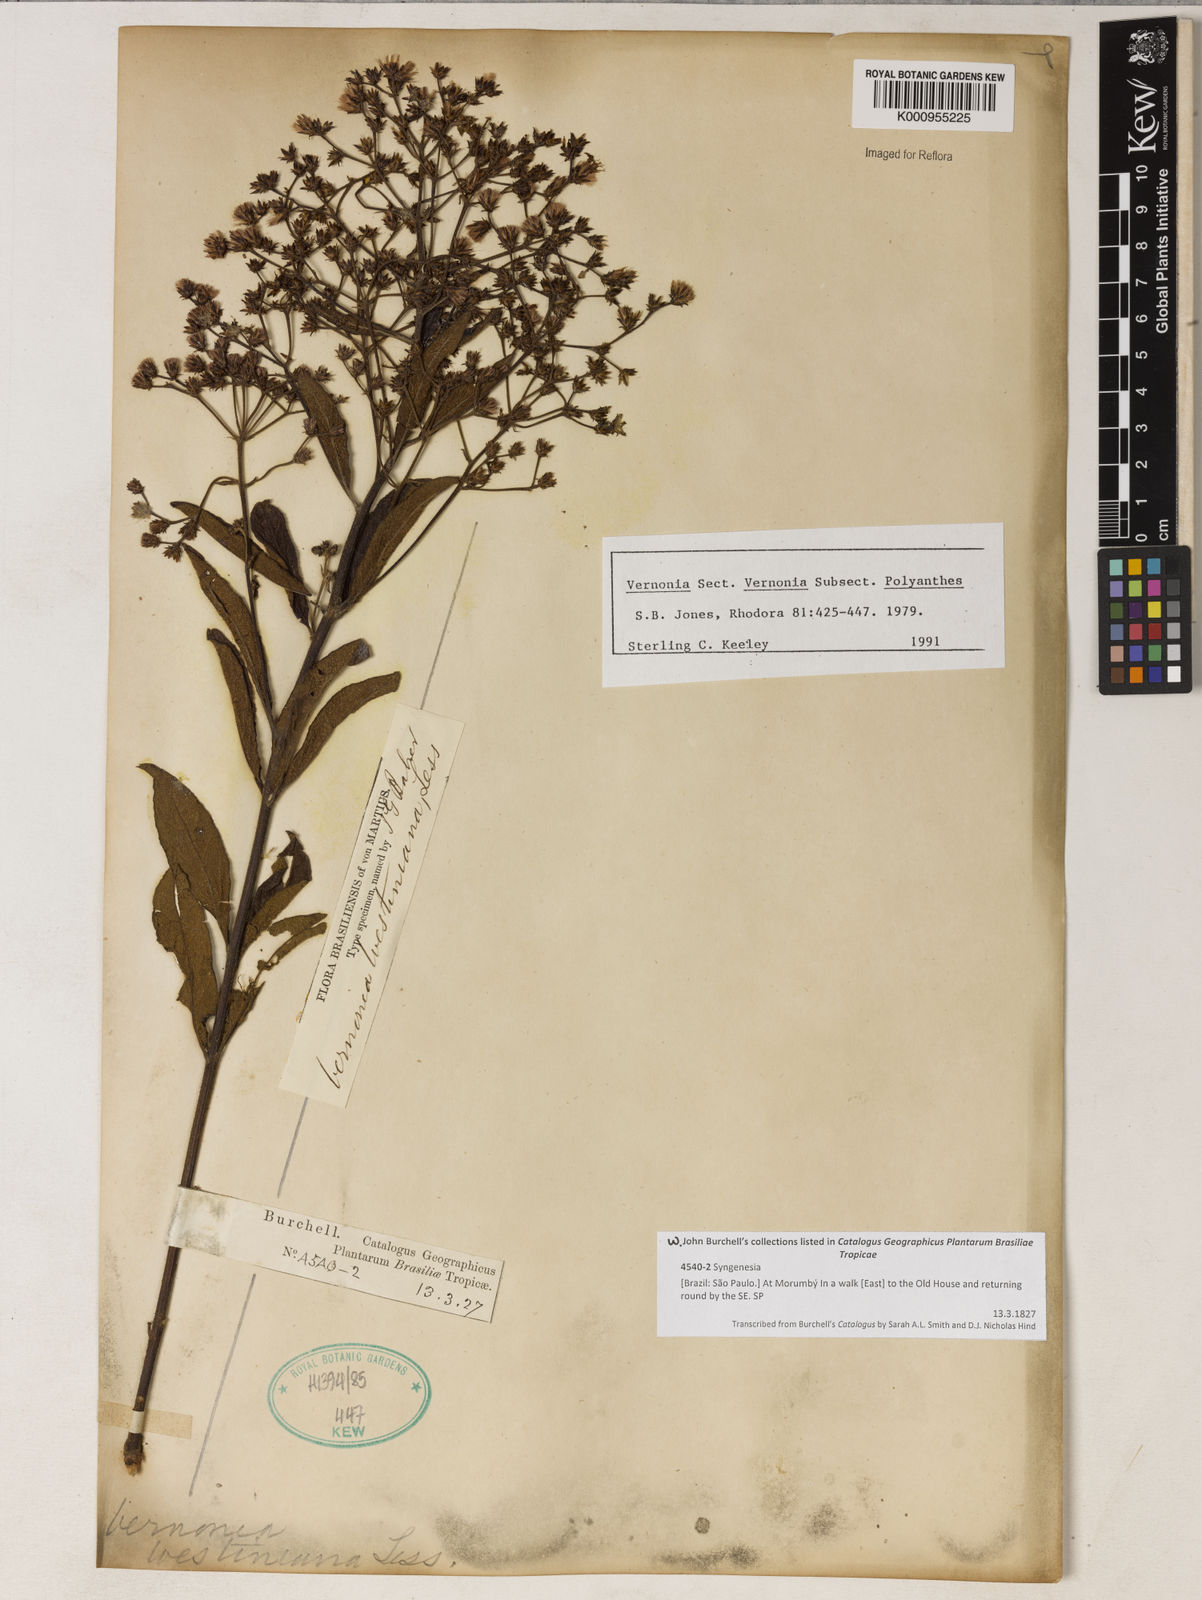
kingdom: Plantae
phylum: Tracheophyta
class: Magnoliopsida
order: Asterales
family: Asteraceae
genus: Vernonanthura
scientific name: Vernonanthura westiniana
